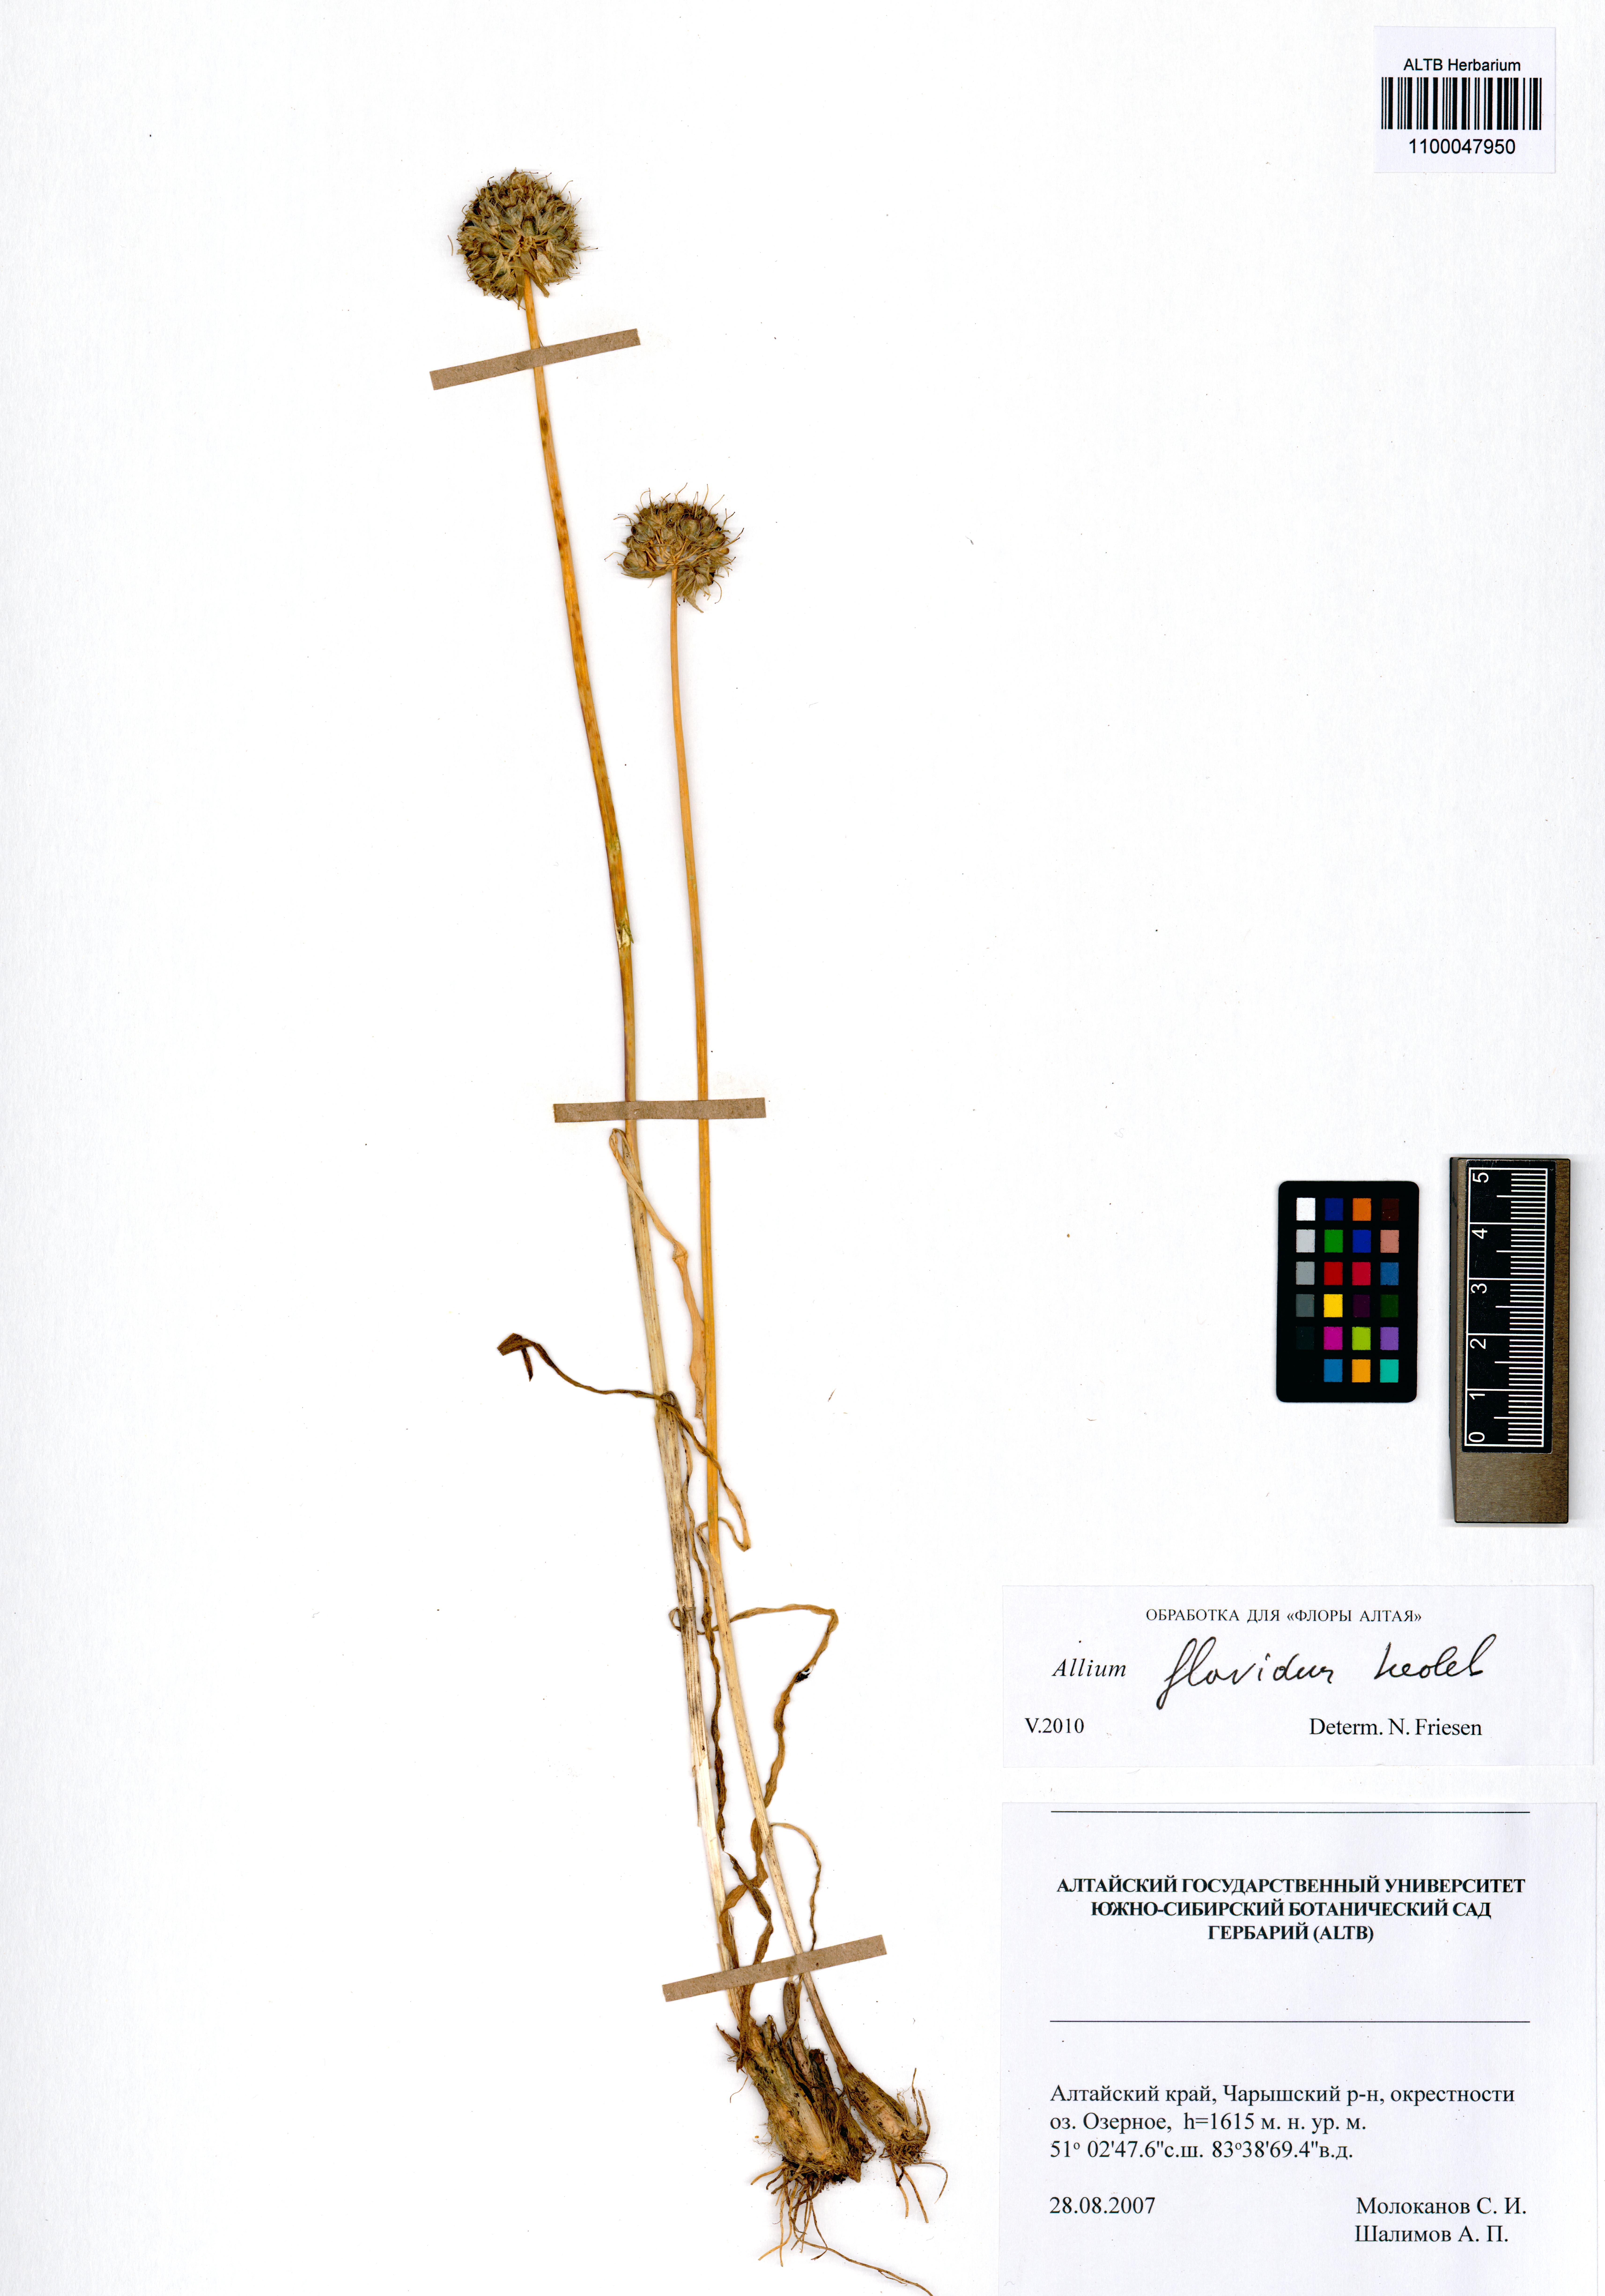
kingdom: Plantae
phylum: Tracheophyta
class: Liliopsida
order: Asparagales
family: Amaryllidaceae
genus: Allium
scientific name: Allium flavidum
